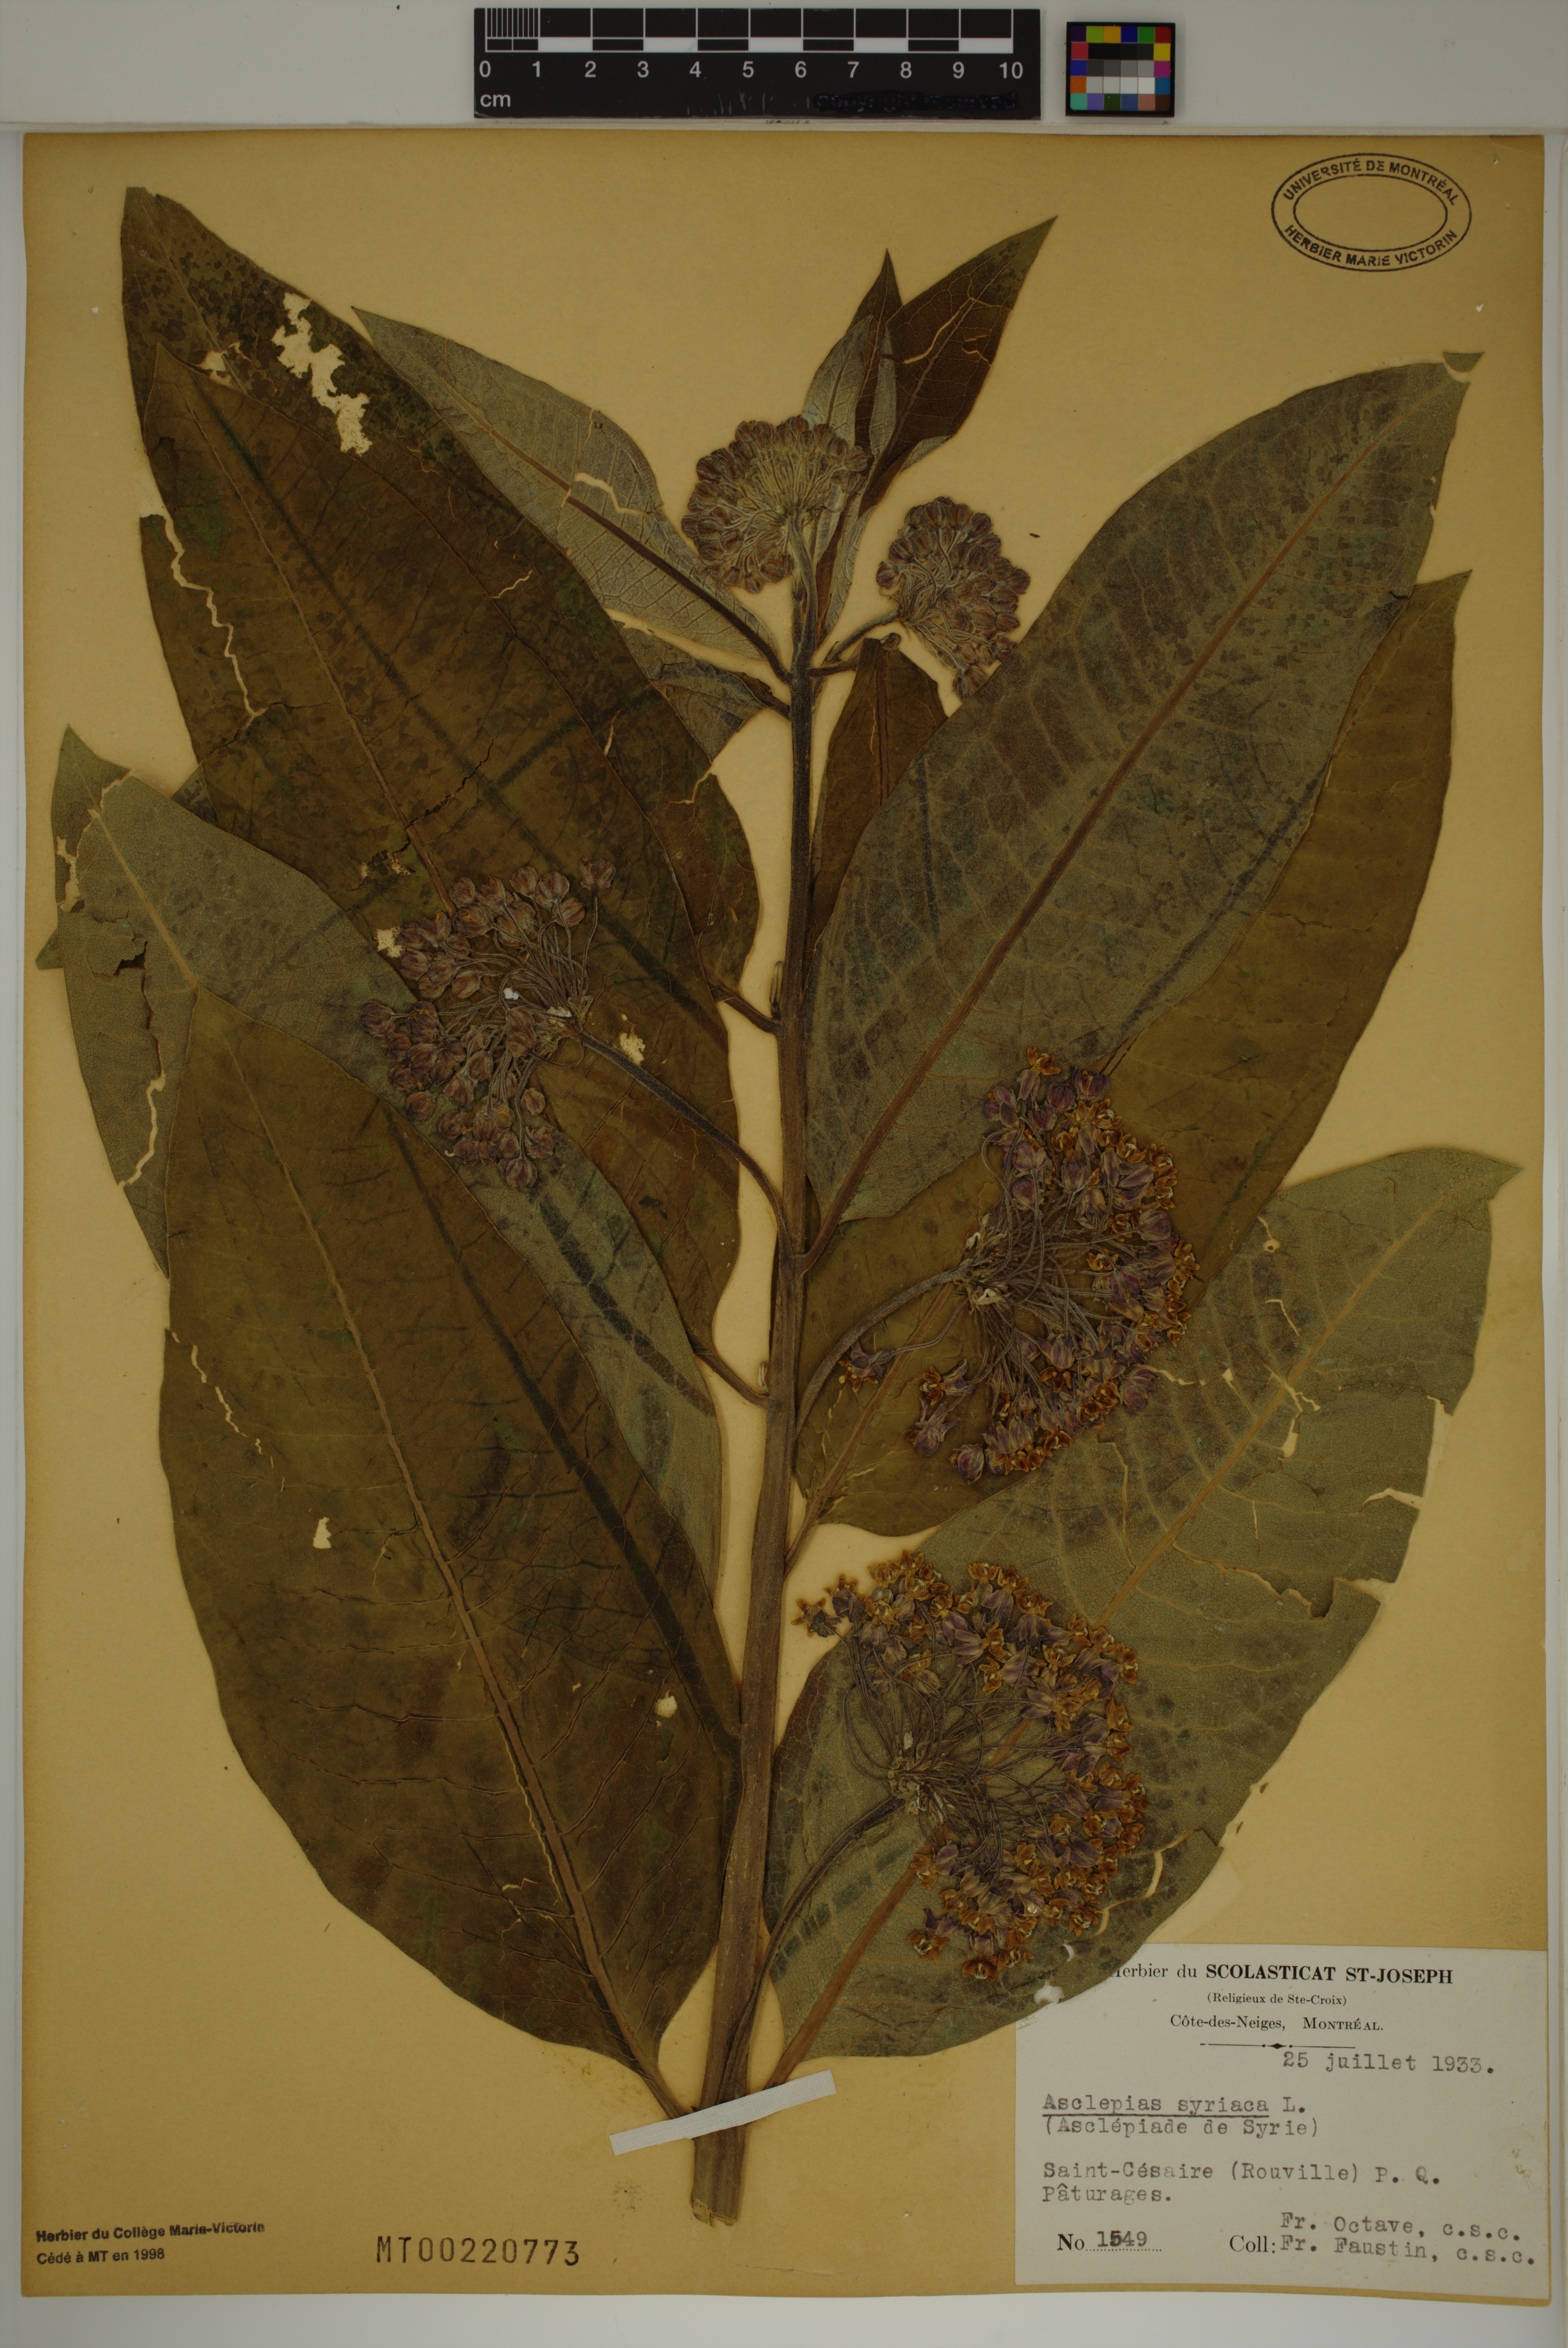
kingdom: Plantae
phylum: Tracheophyta
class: Magnoliopsida
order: Gentianales
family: Apocynaceae
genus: Asclepias
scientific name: Asclepias syriaca
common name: Common milkweed
